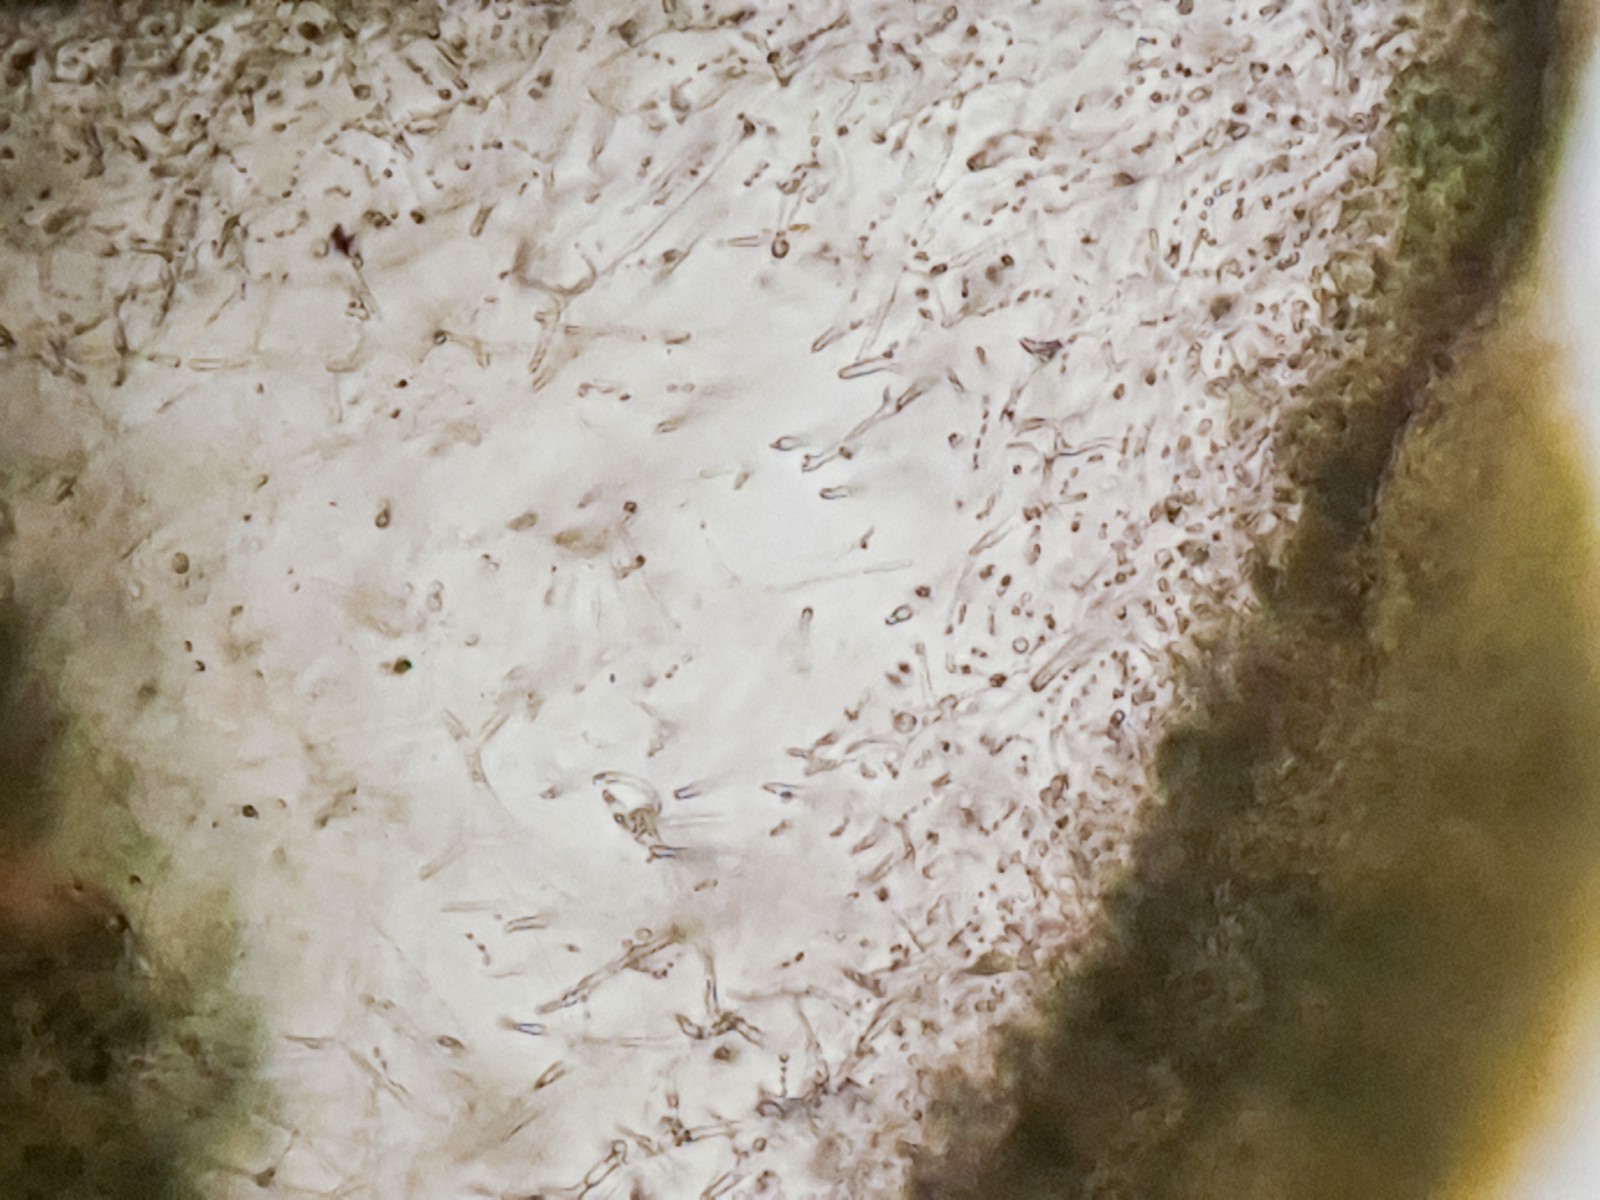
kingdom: Fungi
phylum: Ascomycota
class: Lecanoromycetes
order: Peltigerales
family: Collemataceae
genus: Scytinium
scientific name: Scytinium turgidum
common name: mur-hindelav
